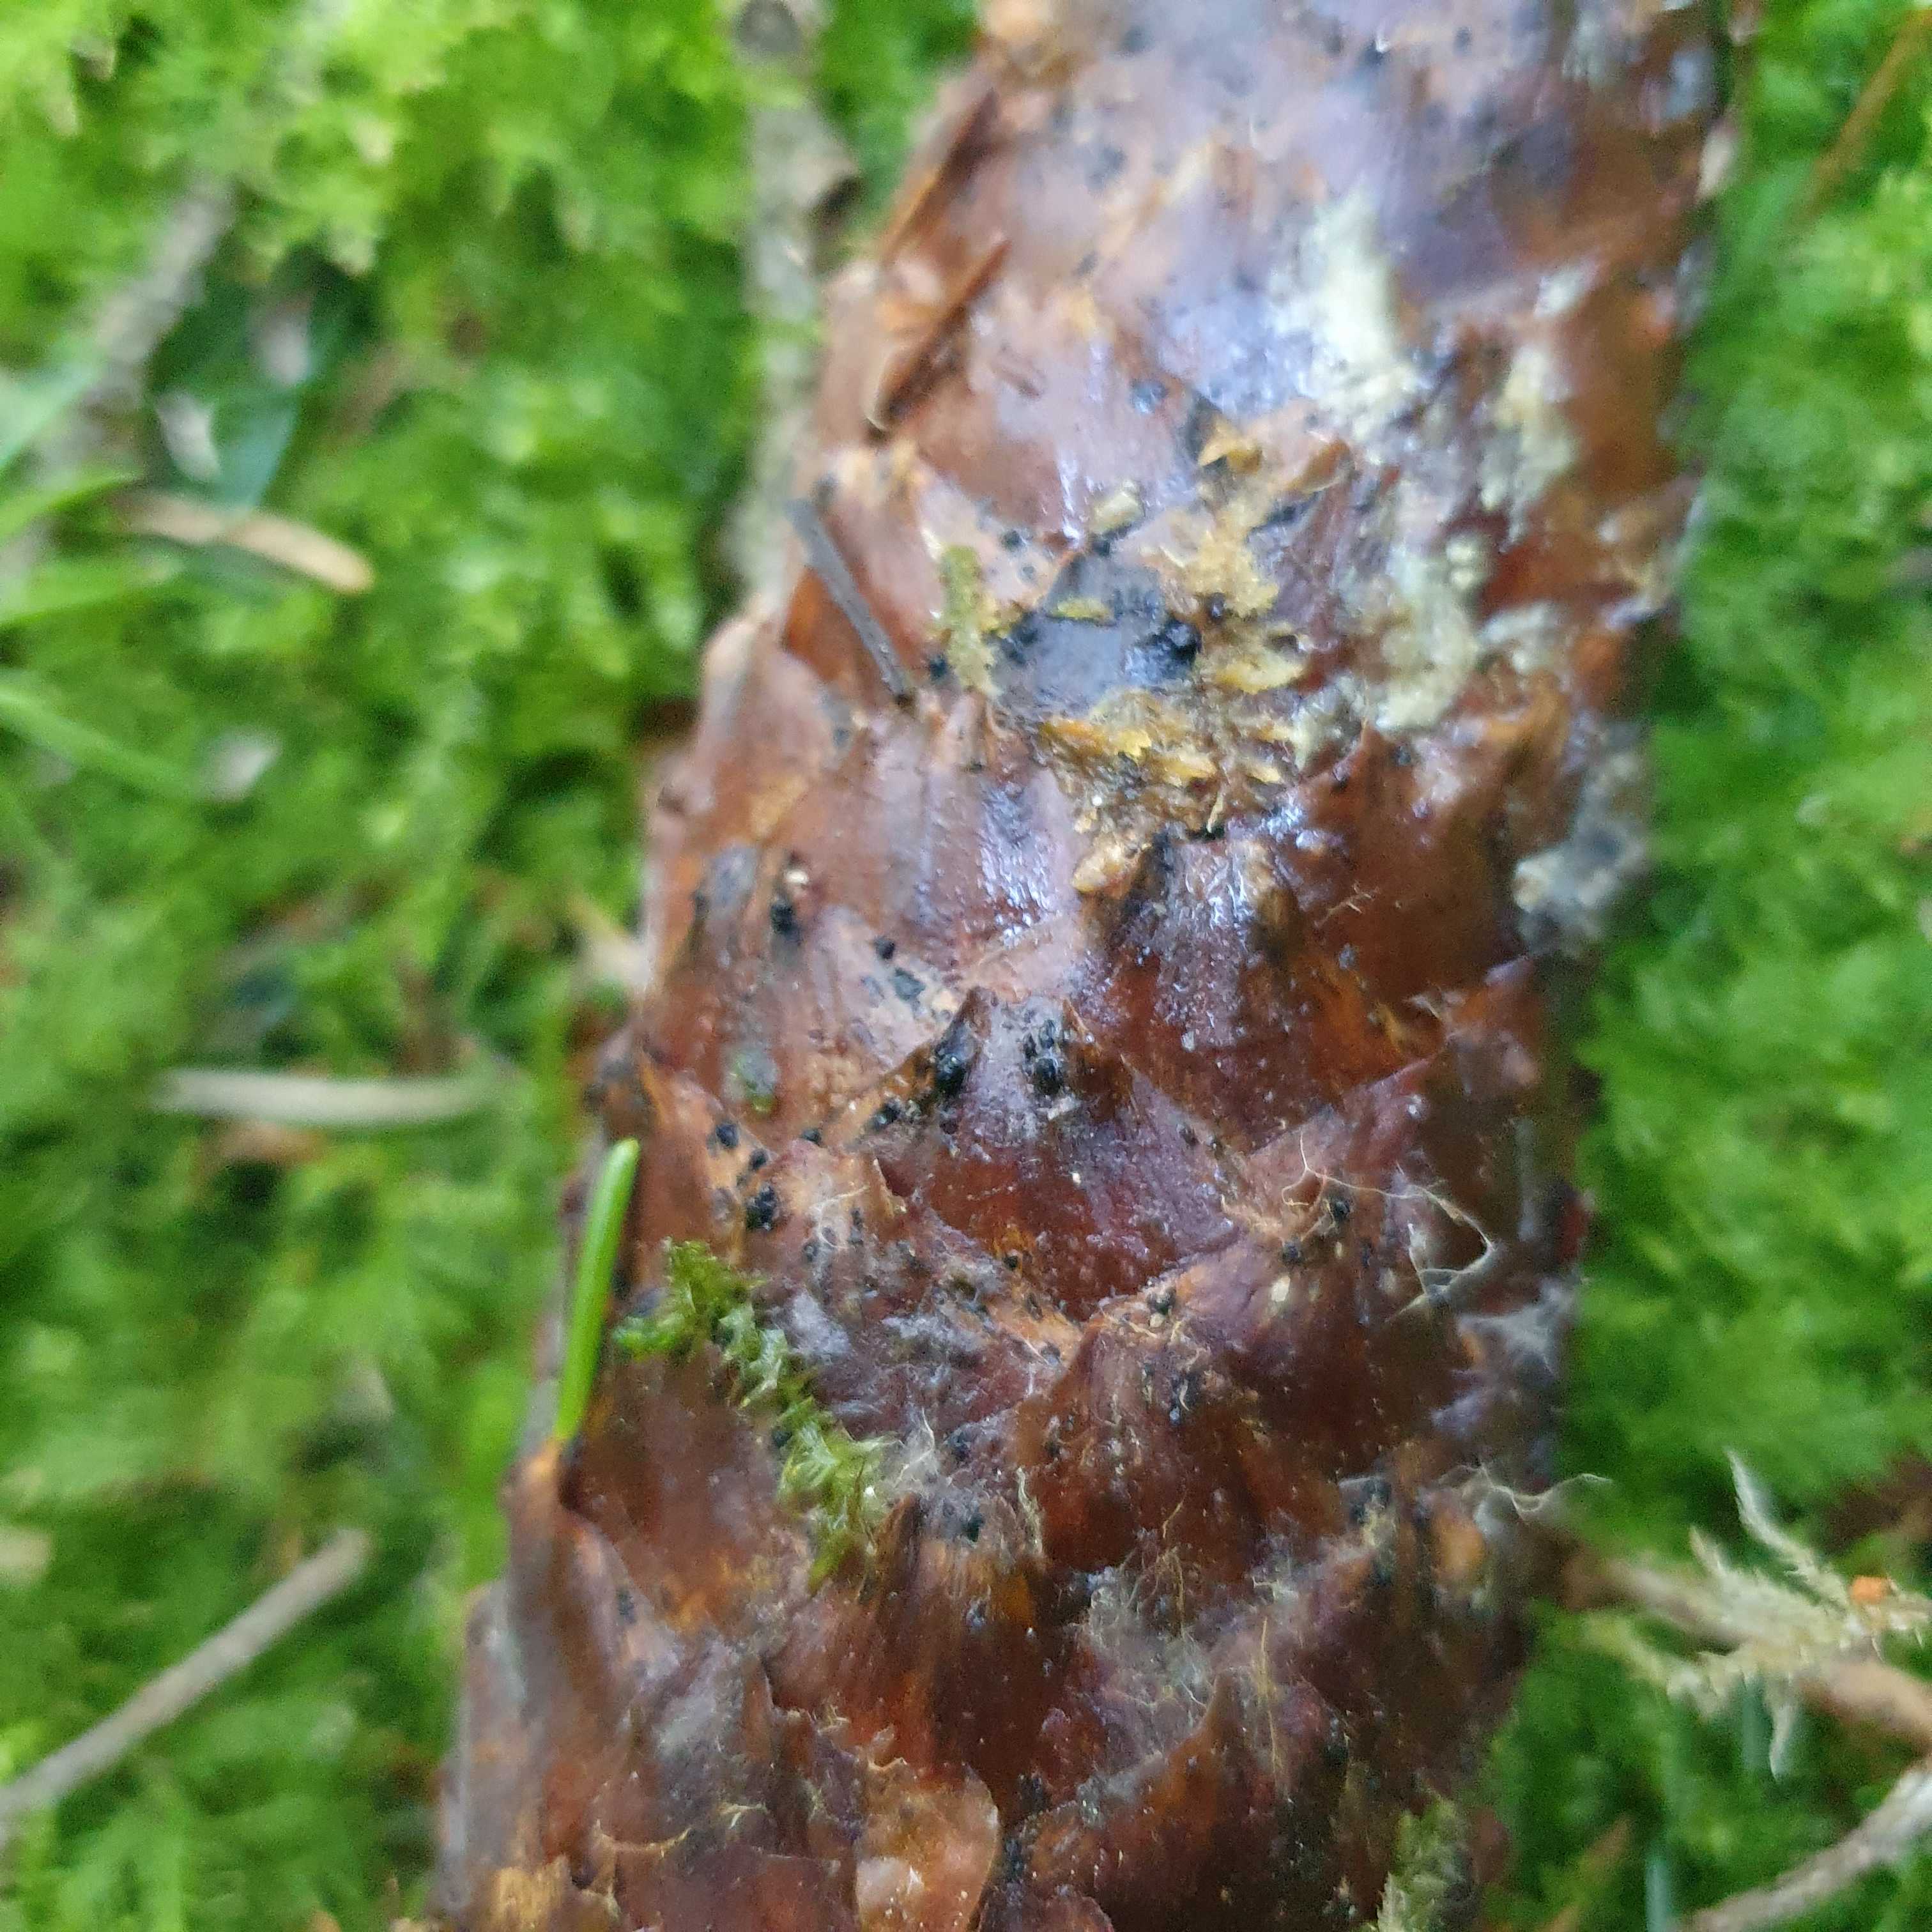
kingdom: Fungi
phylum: Ascomycota
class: Dothideomycetes
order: Pleosporales
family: Melanommataceae
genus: Phragmotrichum
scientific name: Phragmotrichum chailletii
